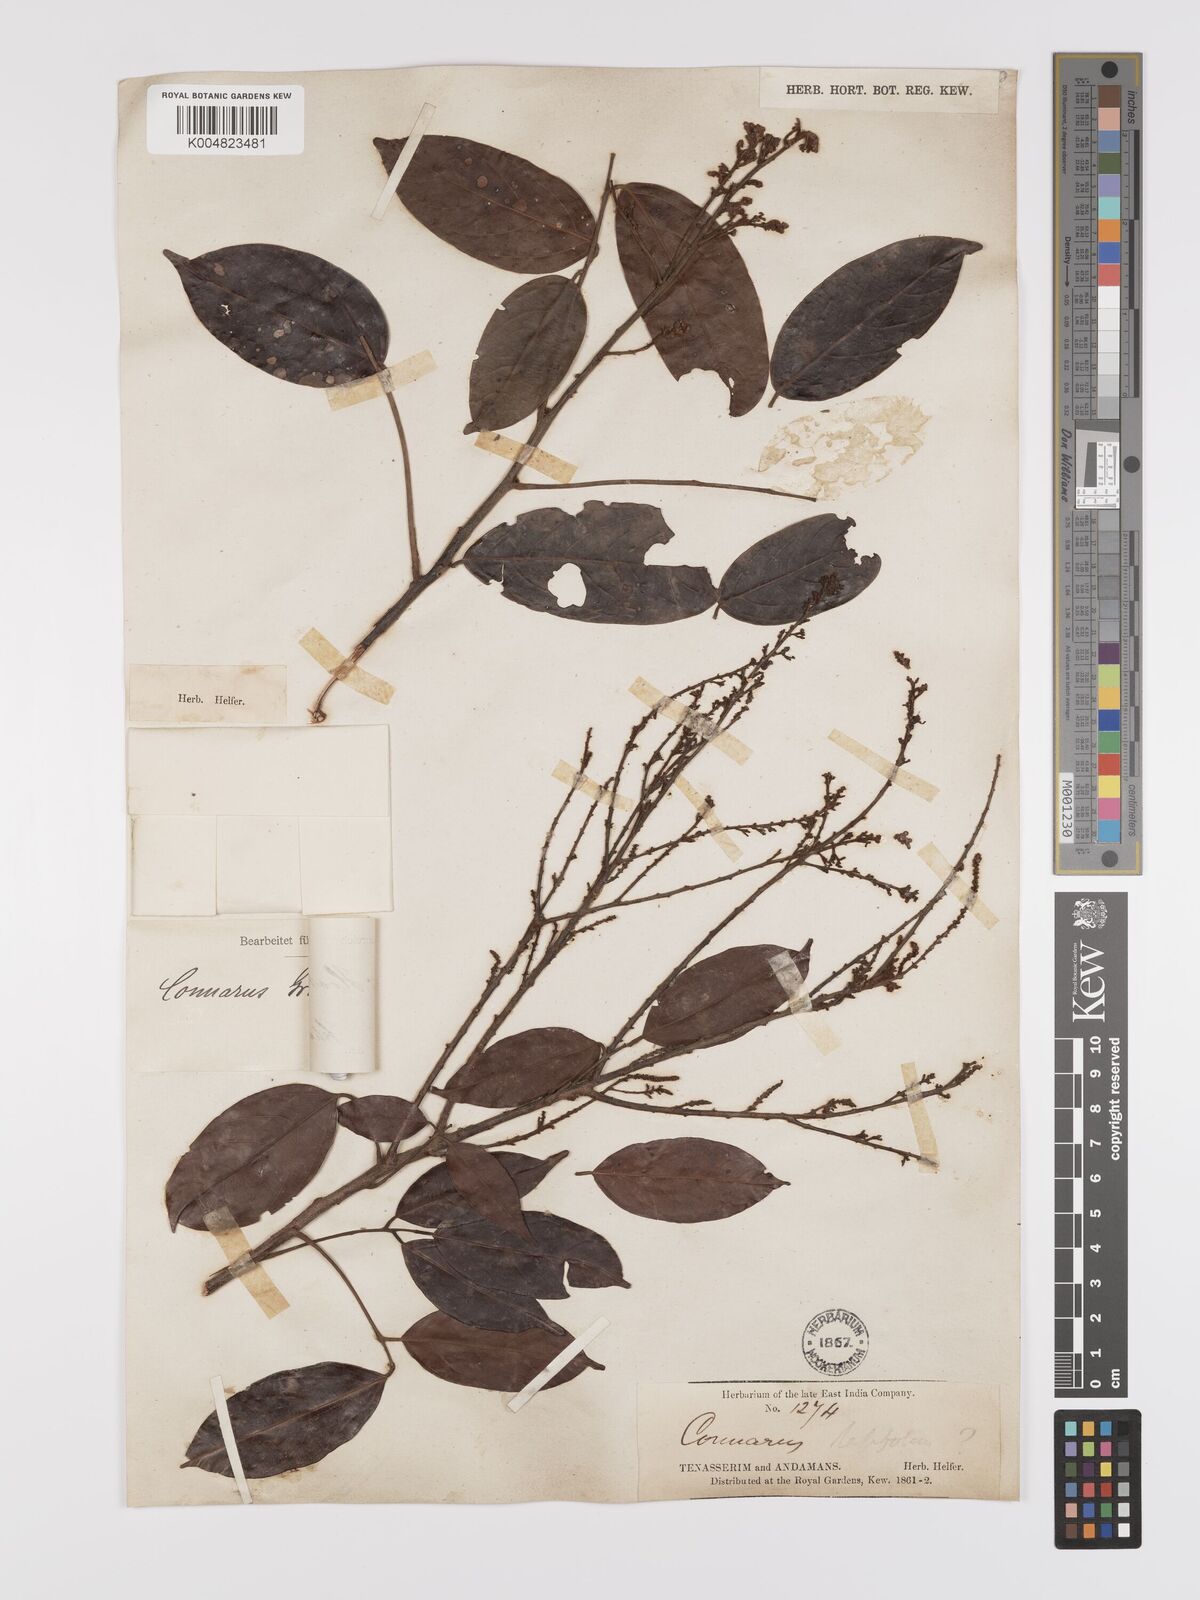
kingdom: Plantae
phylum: Tracheophyta
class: Magnoliopsida
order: Oxalidales
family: Connaraceae
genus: Connarus
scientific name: Connarus semidecandrus
